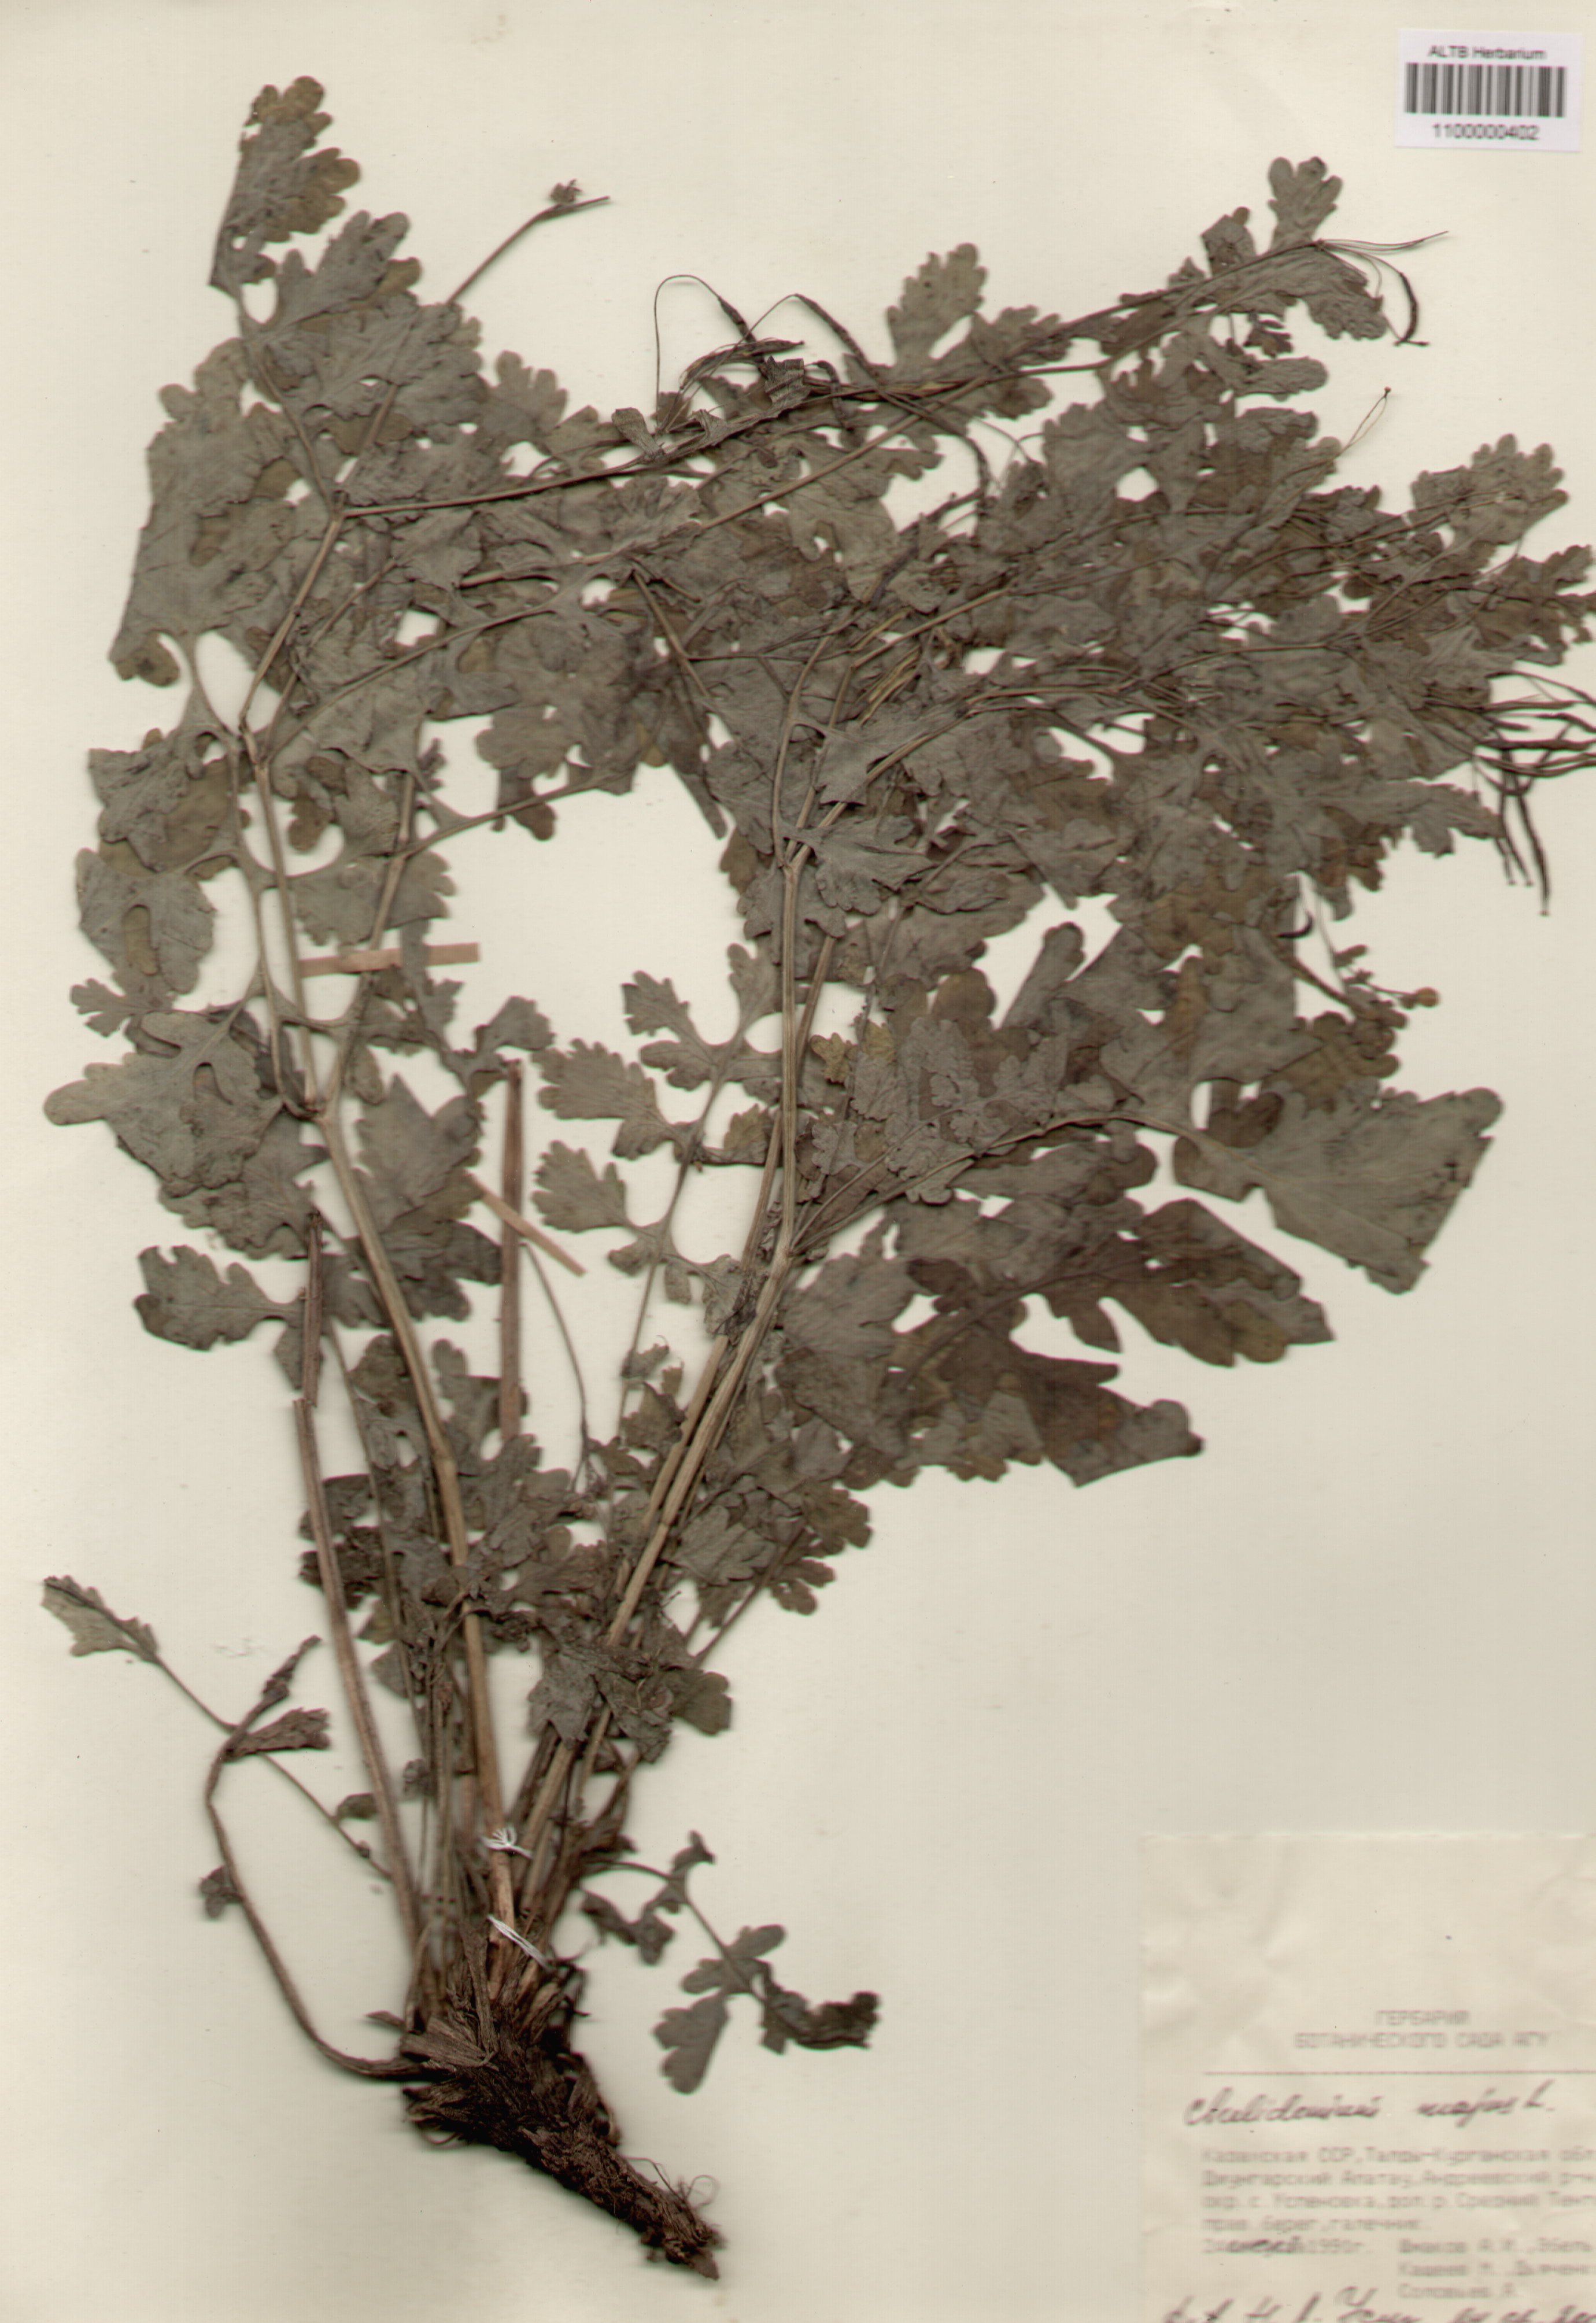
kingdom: Plantae
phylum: Tracheophyta
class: Magnoliopsida
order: Ranunculales
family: Papaveraceae
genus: Chelidonium
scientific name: Chelidonium majus
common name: Greater celandine
